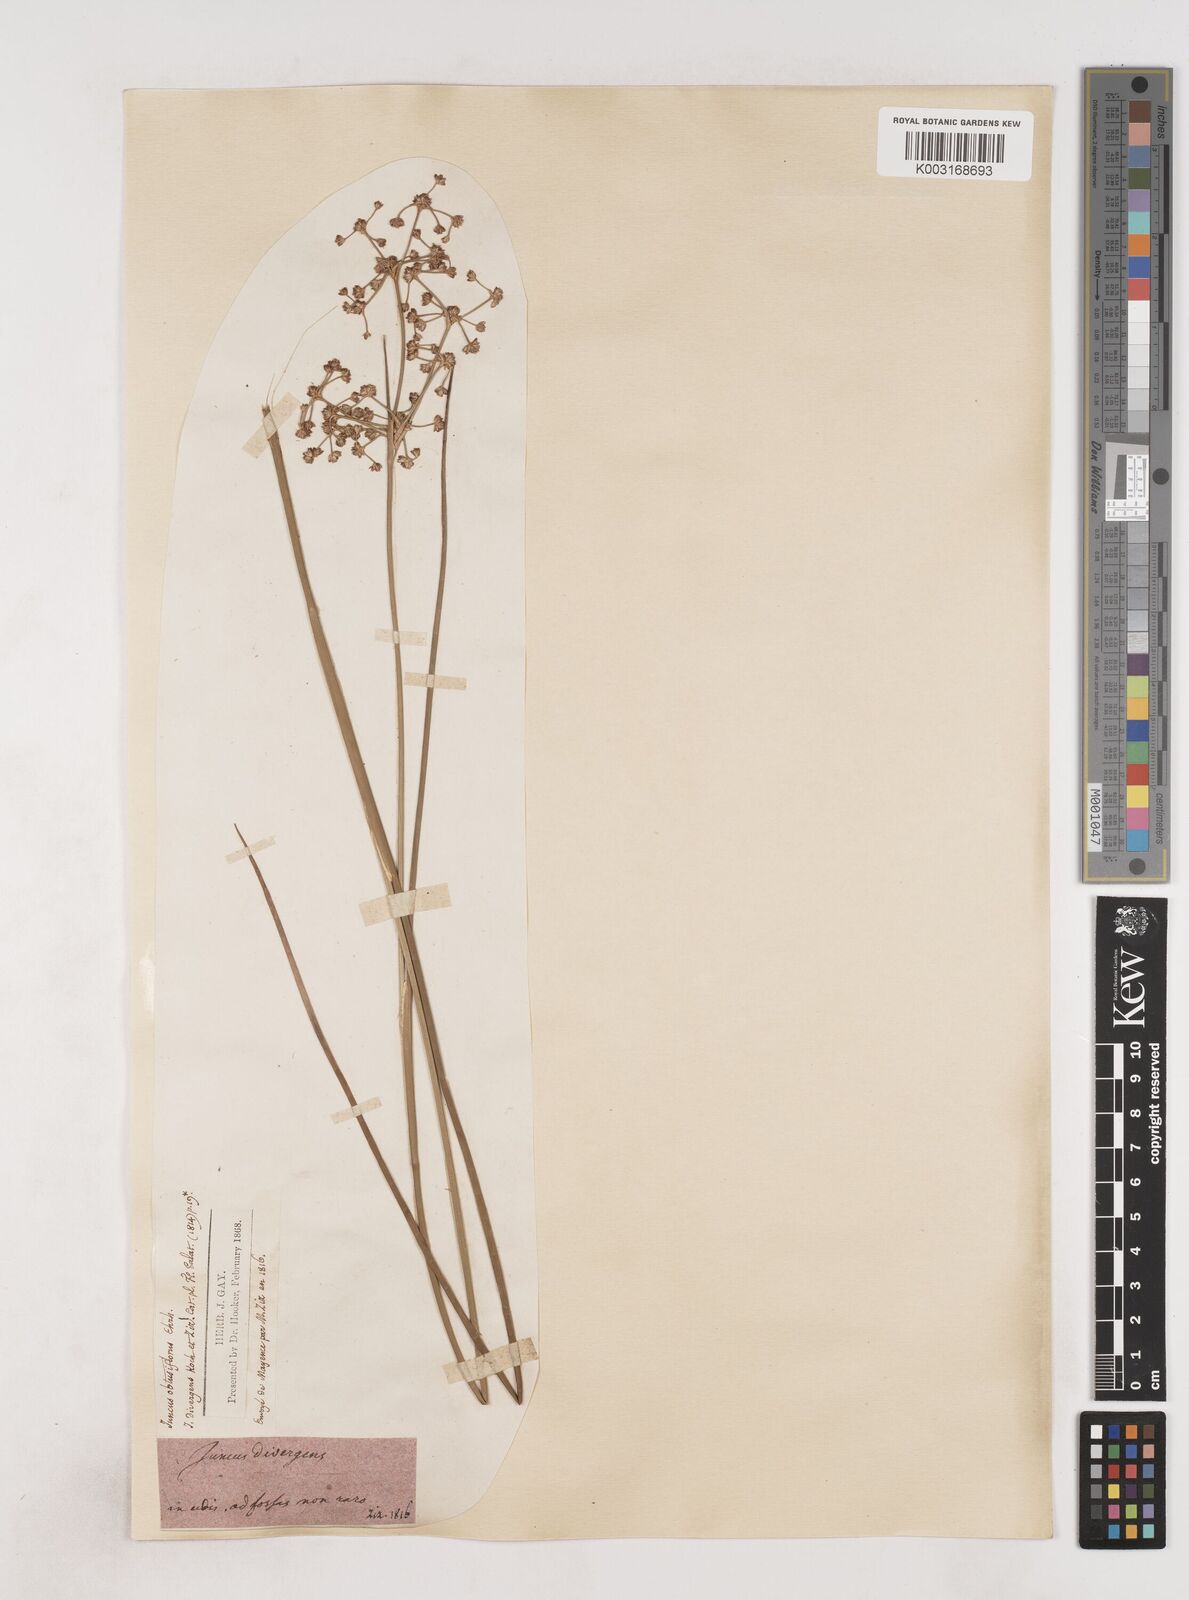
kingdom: Plantae
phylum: Tracheophyta
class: Liliopsida
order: Poales
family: Juncaceae
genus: Juncus
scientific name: Juncus subnodulosus
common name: Blunt-flowered rush
